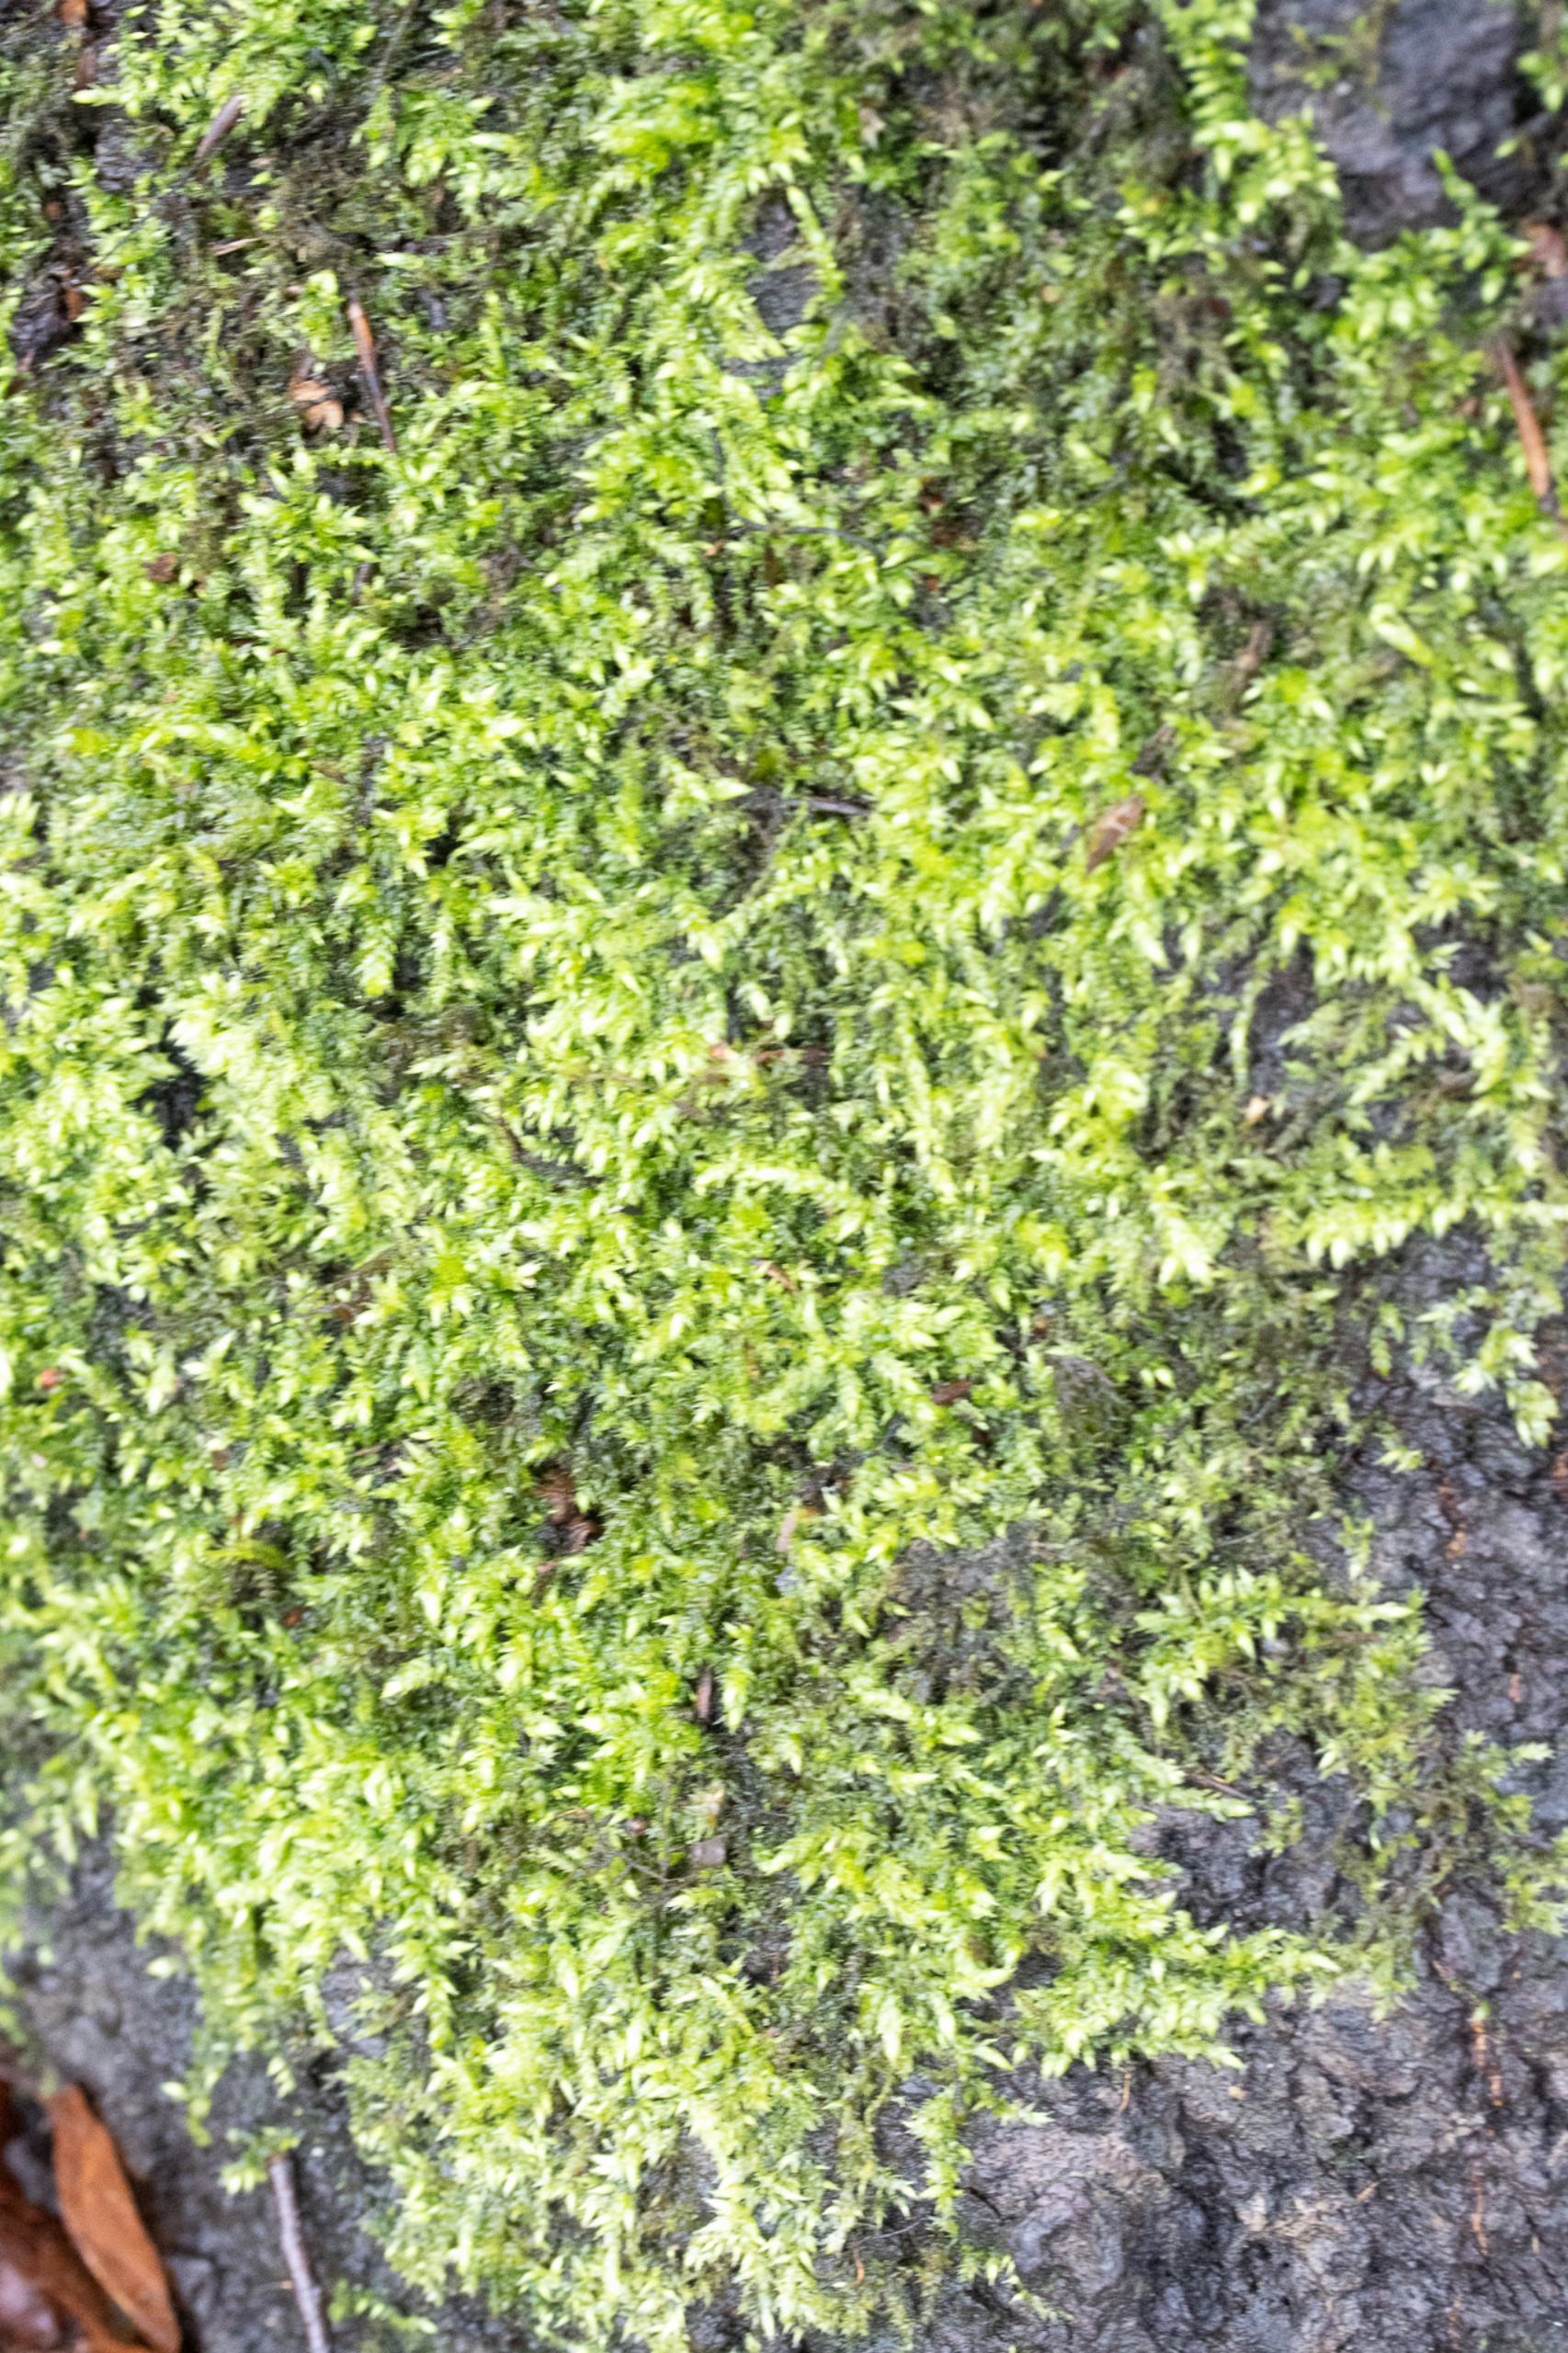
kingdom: Plantae
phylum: Bryophyta
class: Bryopsida
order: Hypnales
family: Brachytheciaceae
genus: Brachythecium
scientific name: Brachythecium rutabulum
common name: Almindelig kortkapsel
